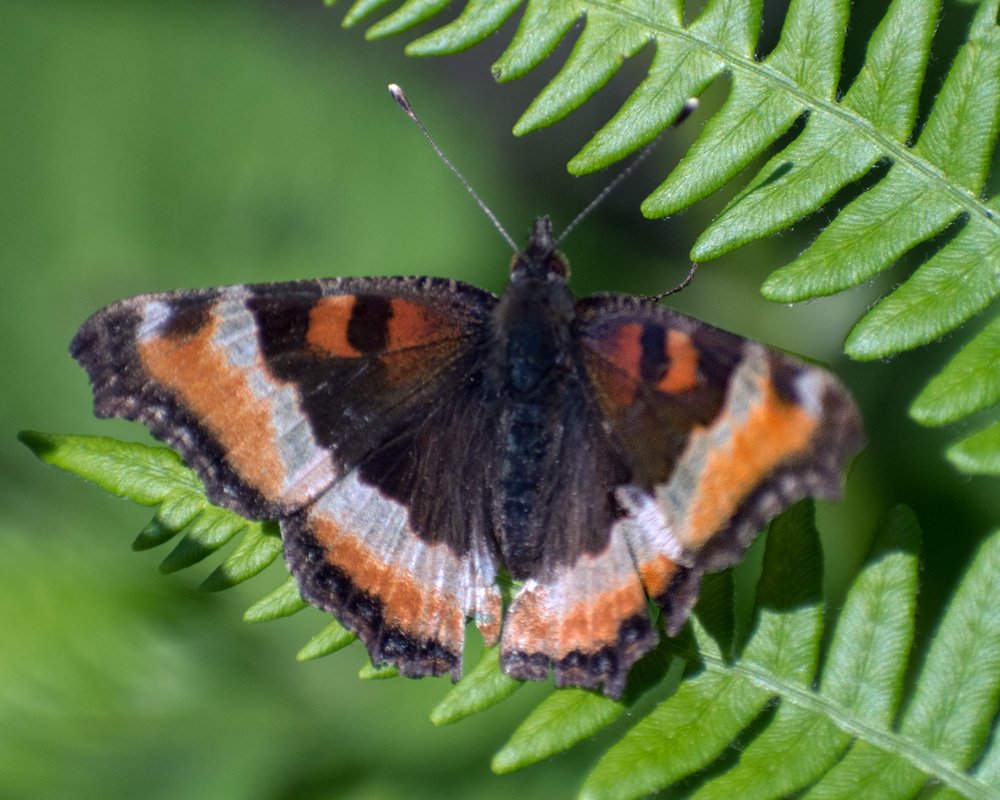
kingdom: Animalia
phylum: Arthropoda
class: Insecta
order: Lepidoptera
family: Nymphalidae
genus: Aglais
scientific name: Aglais milberti
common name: Milbert's Tortoiseshell
